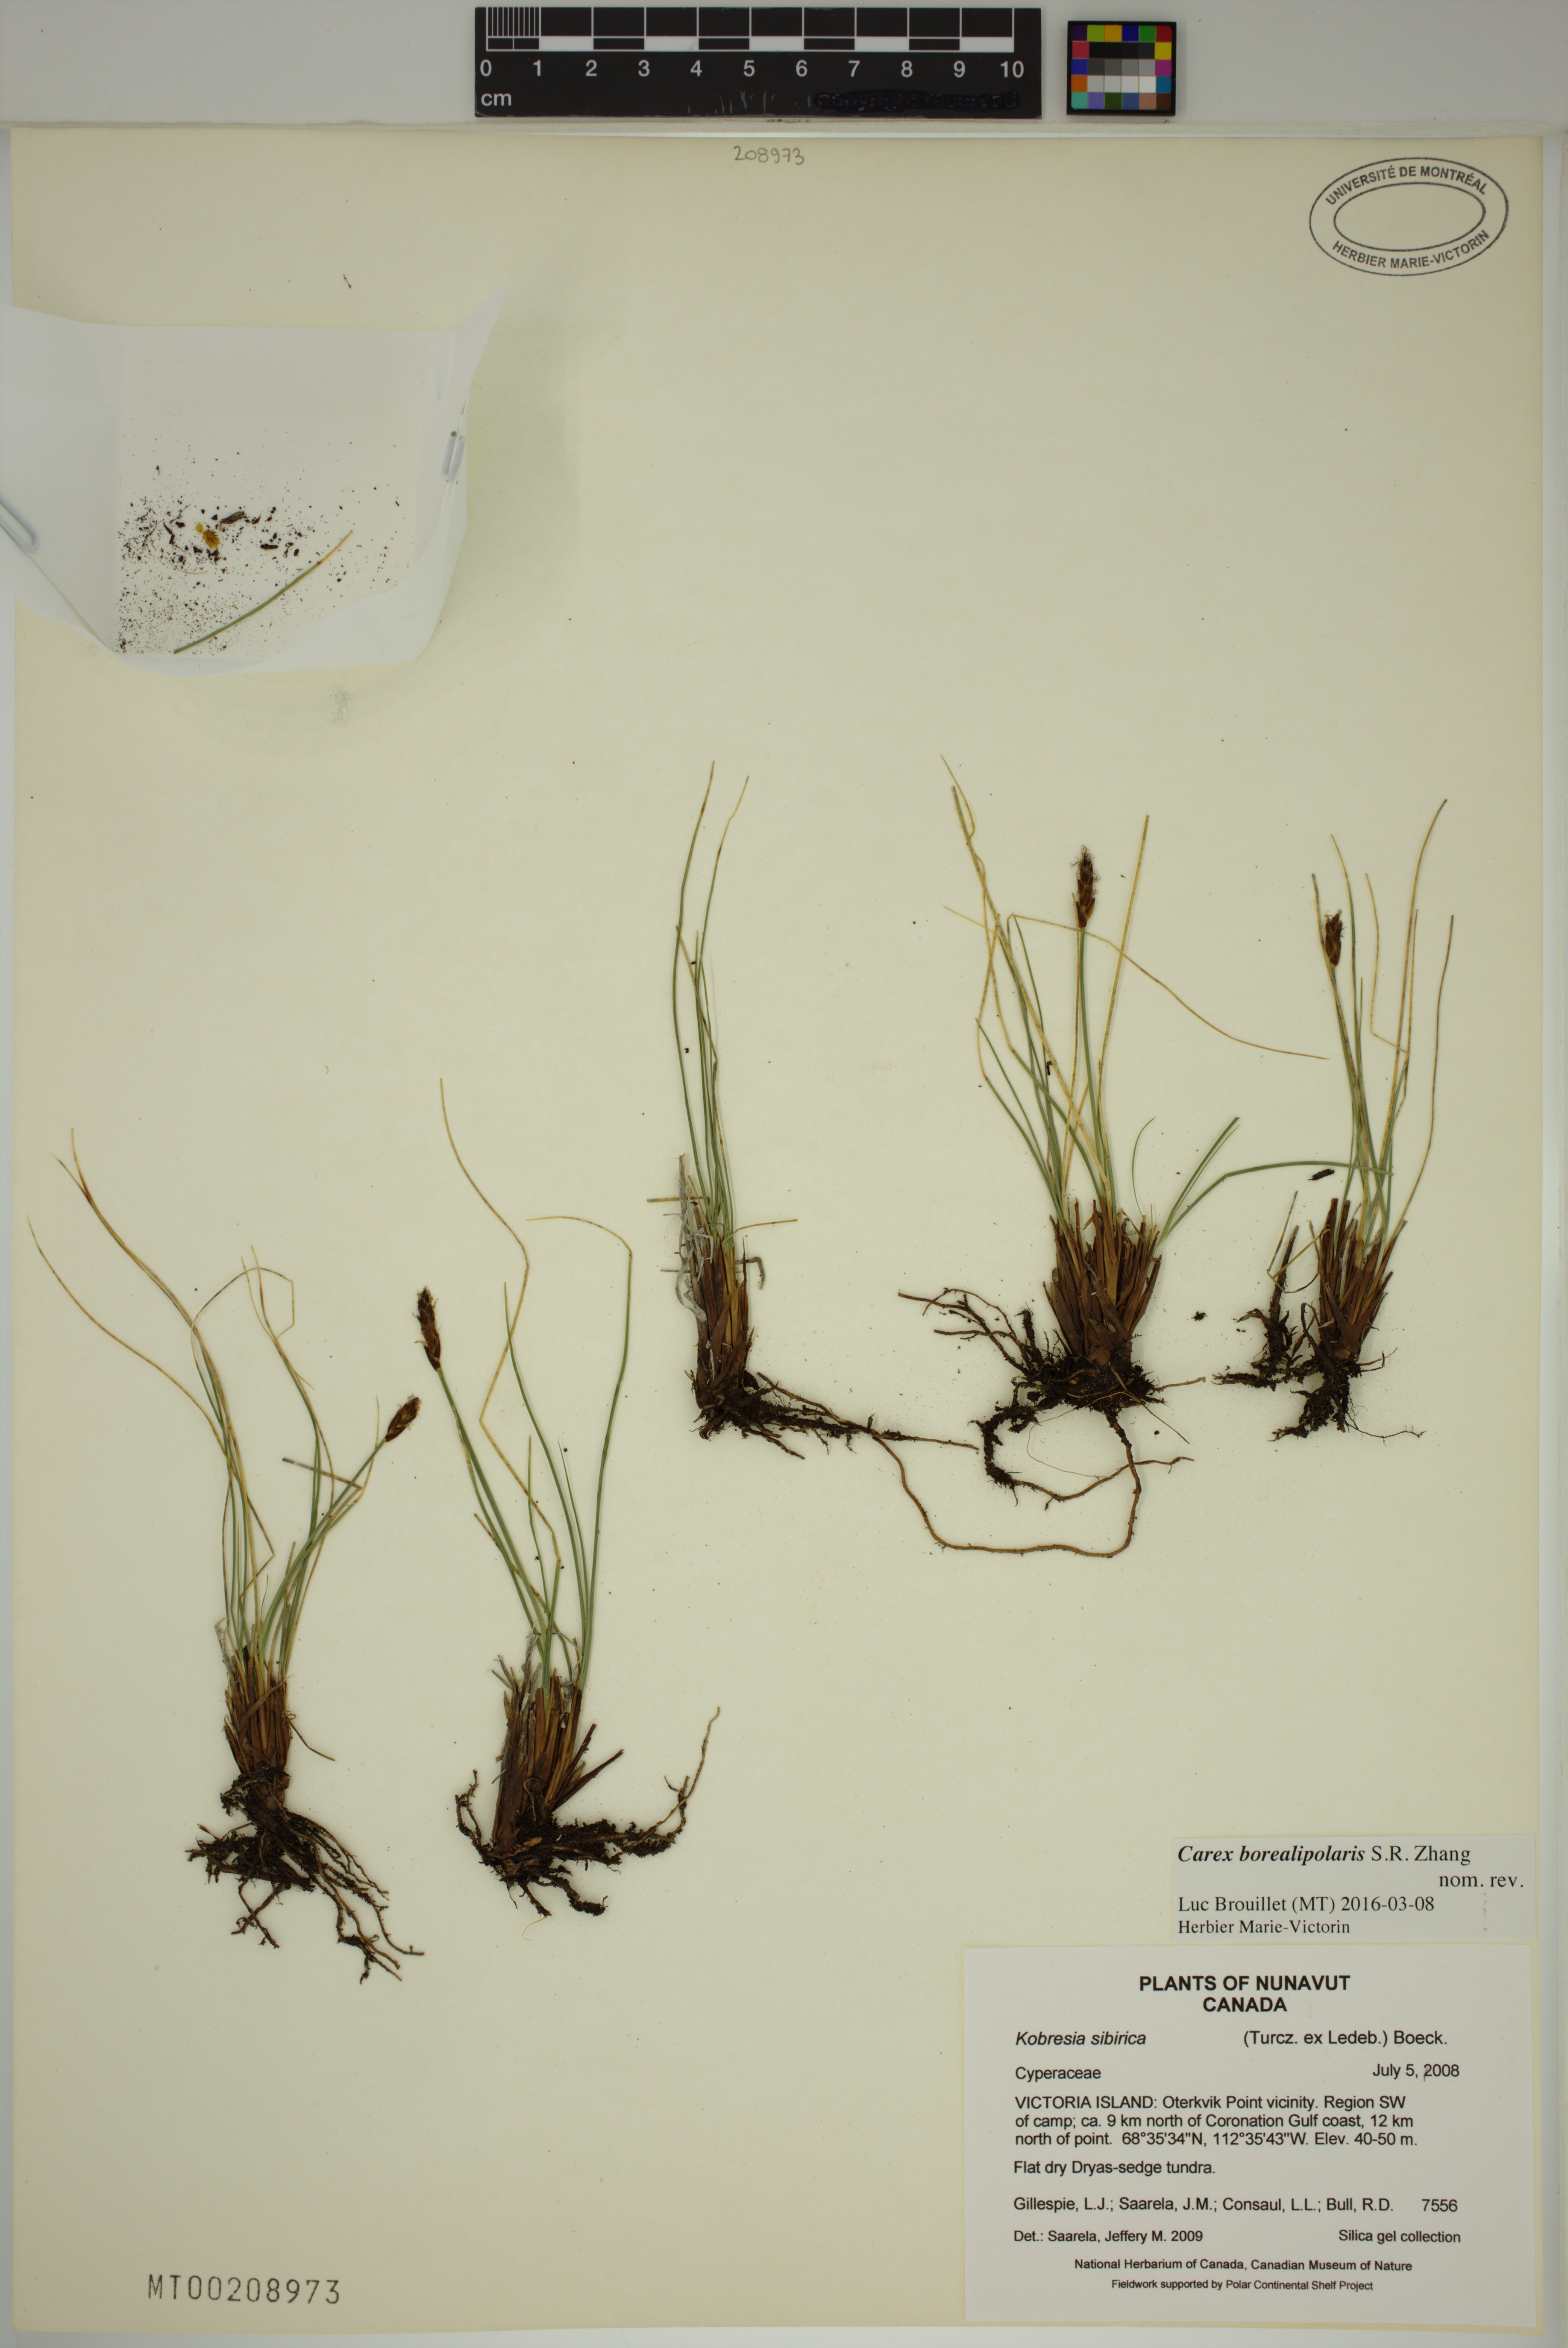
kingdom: Plantae
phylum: Tracheophyta
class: Liliopsida
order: Poales
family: Cyperaceae
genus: Carex
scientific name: Carex borealipolaris
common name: Siberian bog sedge
